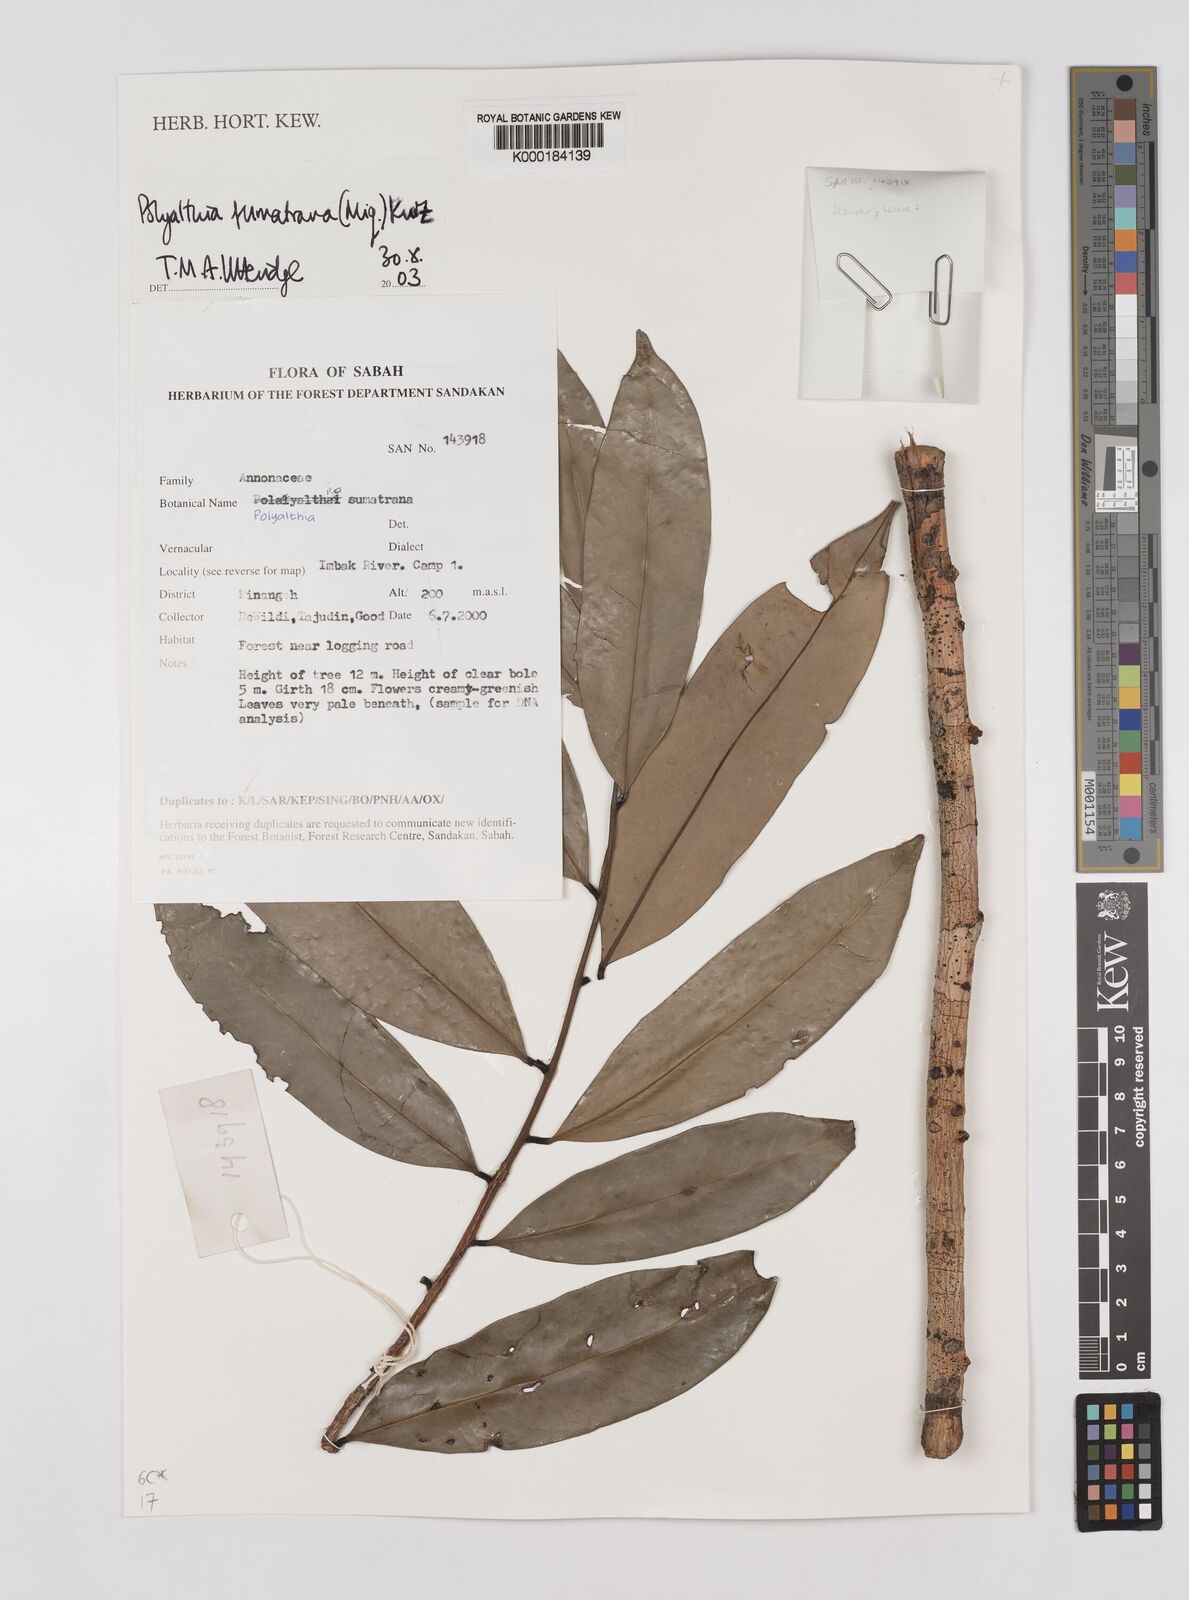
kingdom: Plantae
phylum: Tracheophyta
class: Magnoliopsida
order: Magnoliales
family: Annonaceae
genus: Maasia
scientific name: Maasia sumatrana
